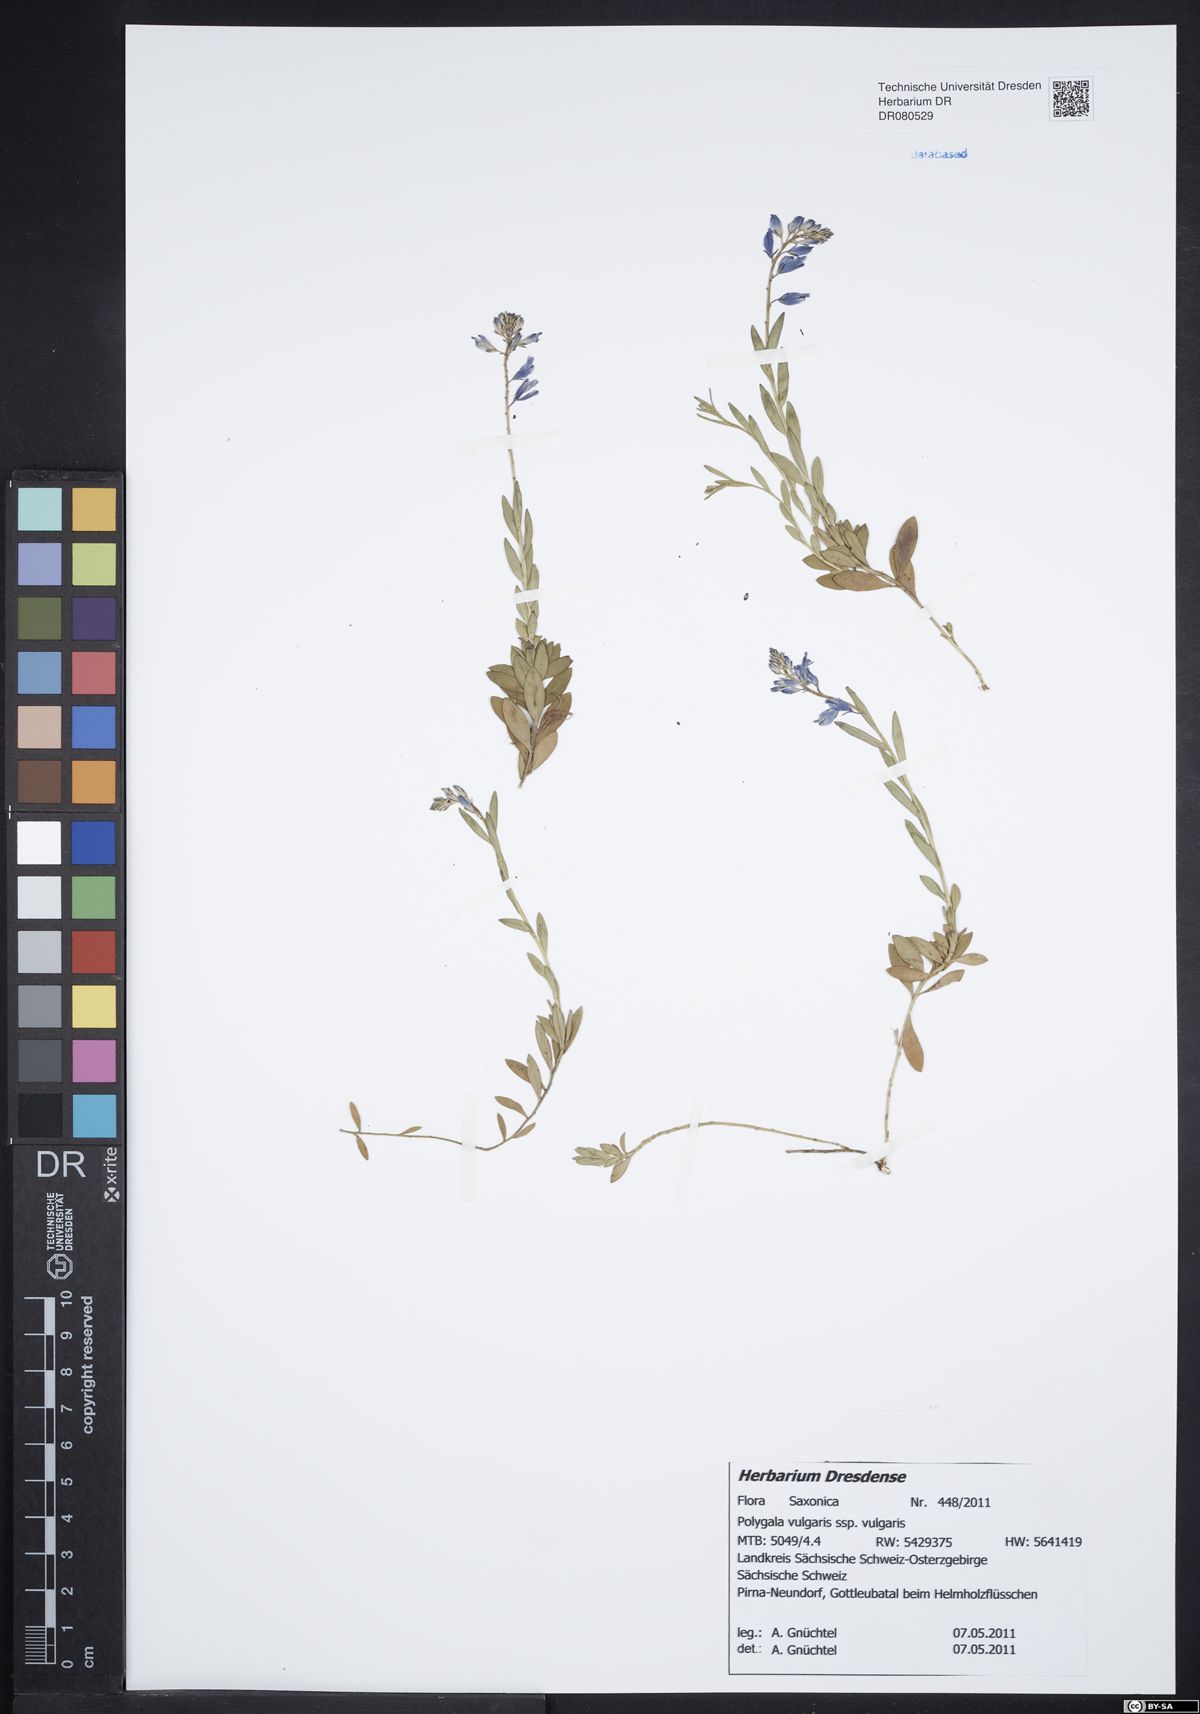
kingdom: Plantae
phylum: Tracheophyta
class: Magnoliopsida
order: Fabales
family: Polygalaceae
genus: Polygala
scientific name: Polygala vulgaris
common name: Common milkwort
